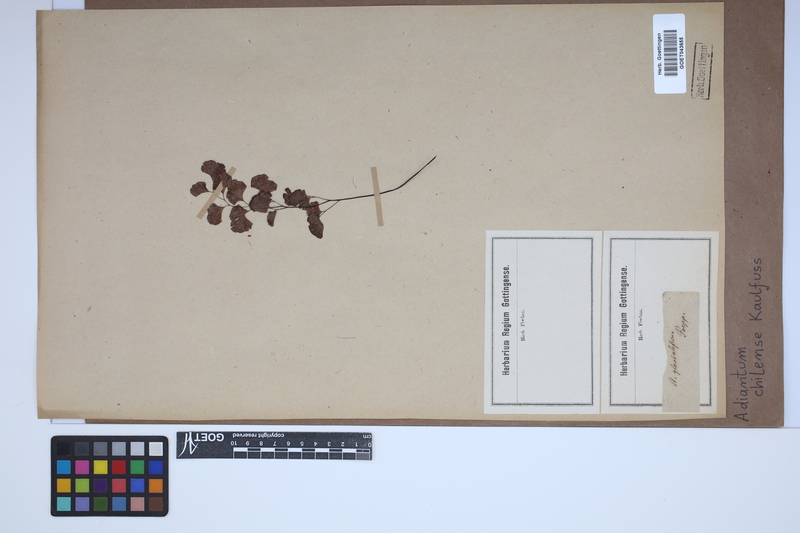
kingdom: Plantae
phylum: Tracheophyta
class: Polypodiopsida
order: Polypodiales
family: Pteridaceae
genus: Adiantum
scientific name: Adiantum chilense
